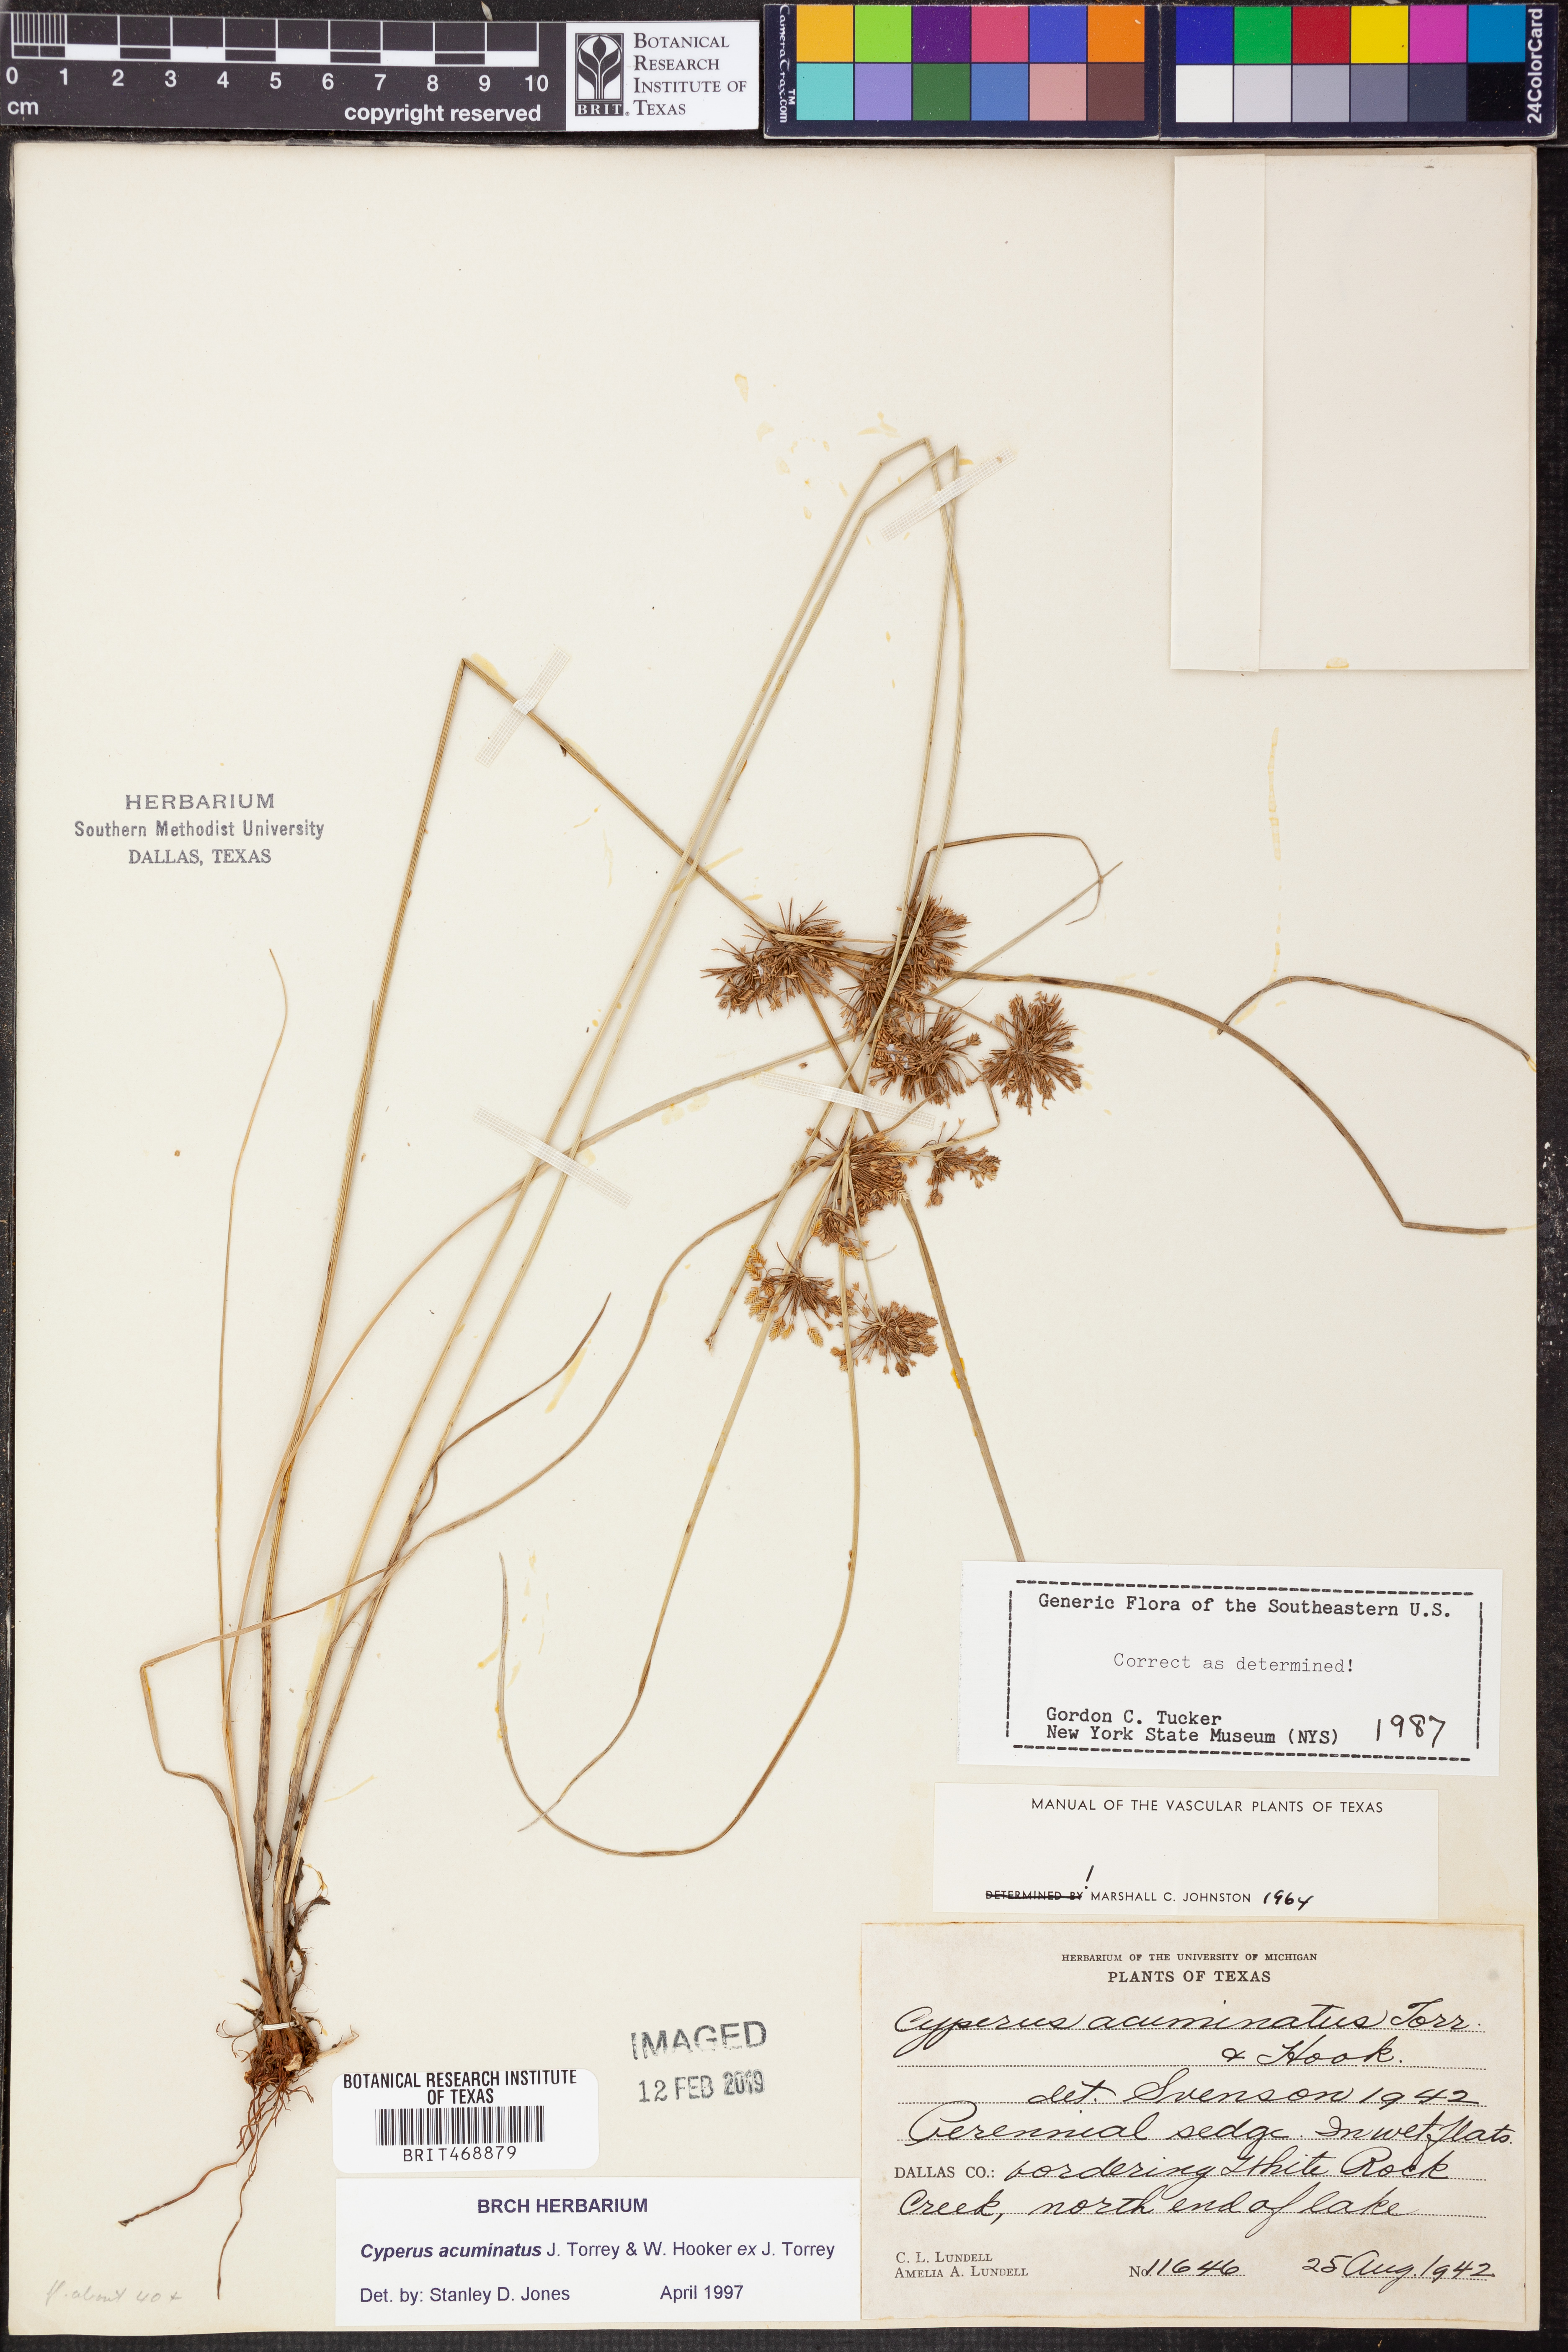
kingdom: Plantae
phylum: Tracheophyta
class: Liliopsida
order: Poales
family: Cyperaceae
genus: Cyperus
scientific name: Cyperus acuminatus
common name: Short-pointed cyperus
